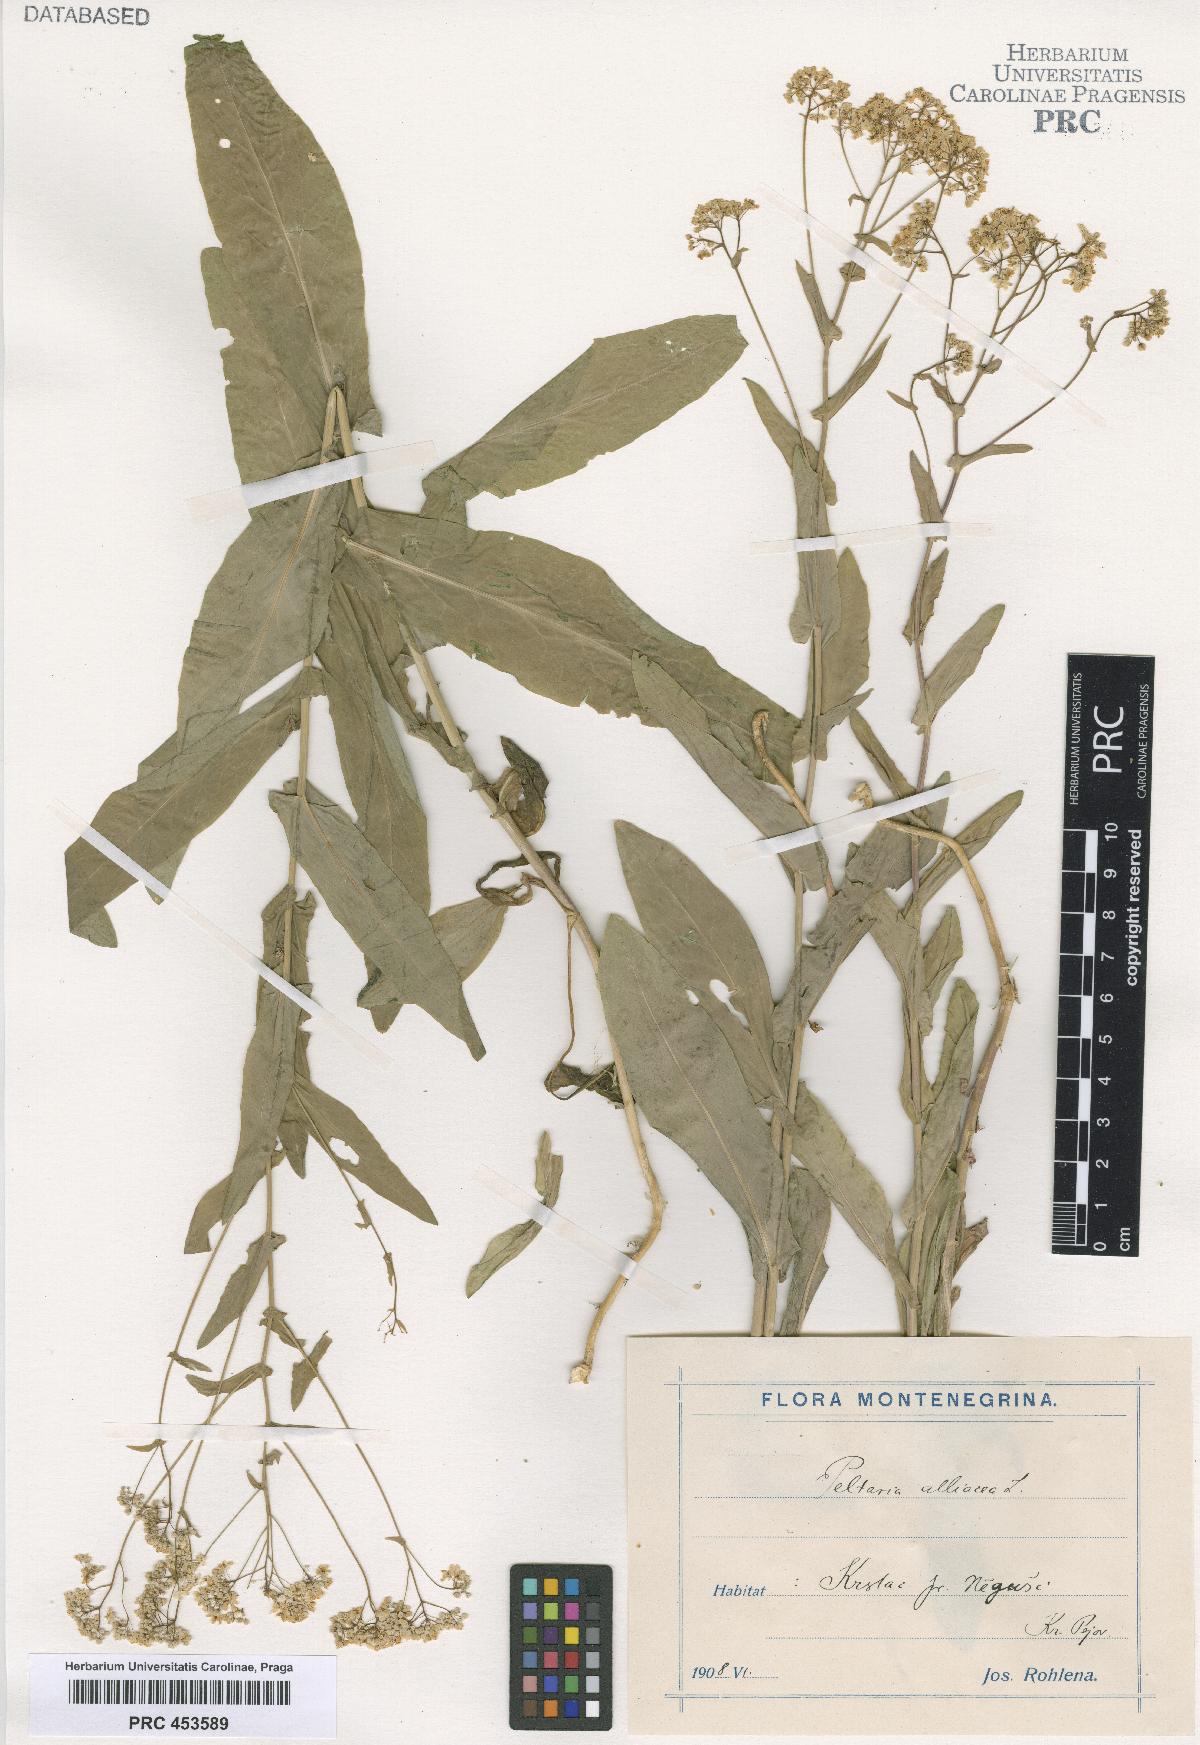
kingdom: Plantae
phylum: Tracheophyta
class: Magnoliopsida
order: Brassicales
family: Brassicaceae
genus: Peltaria
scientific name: Peltaria alliacea
